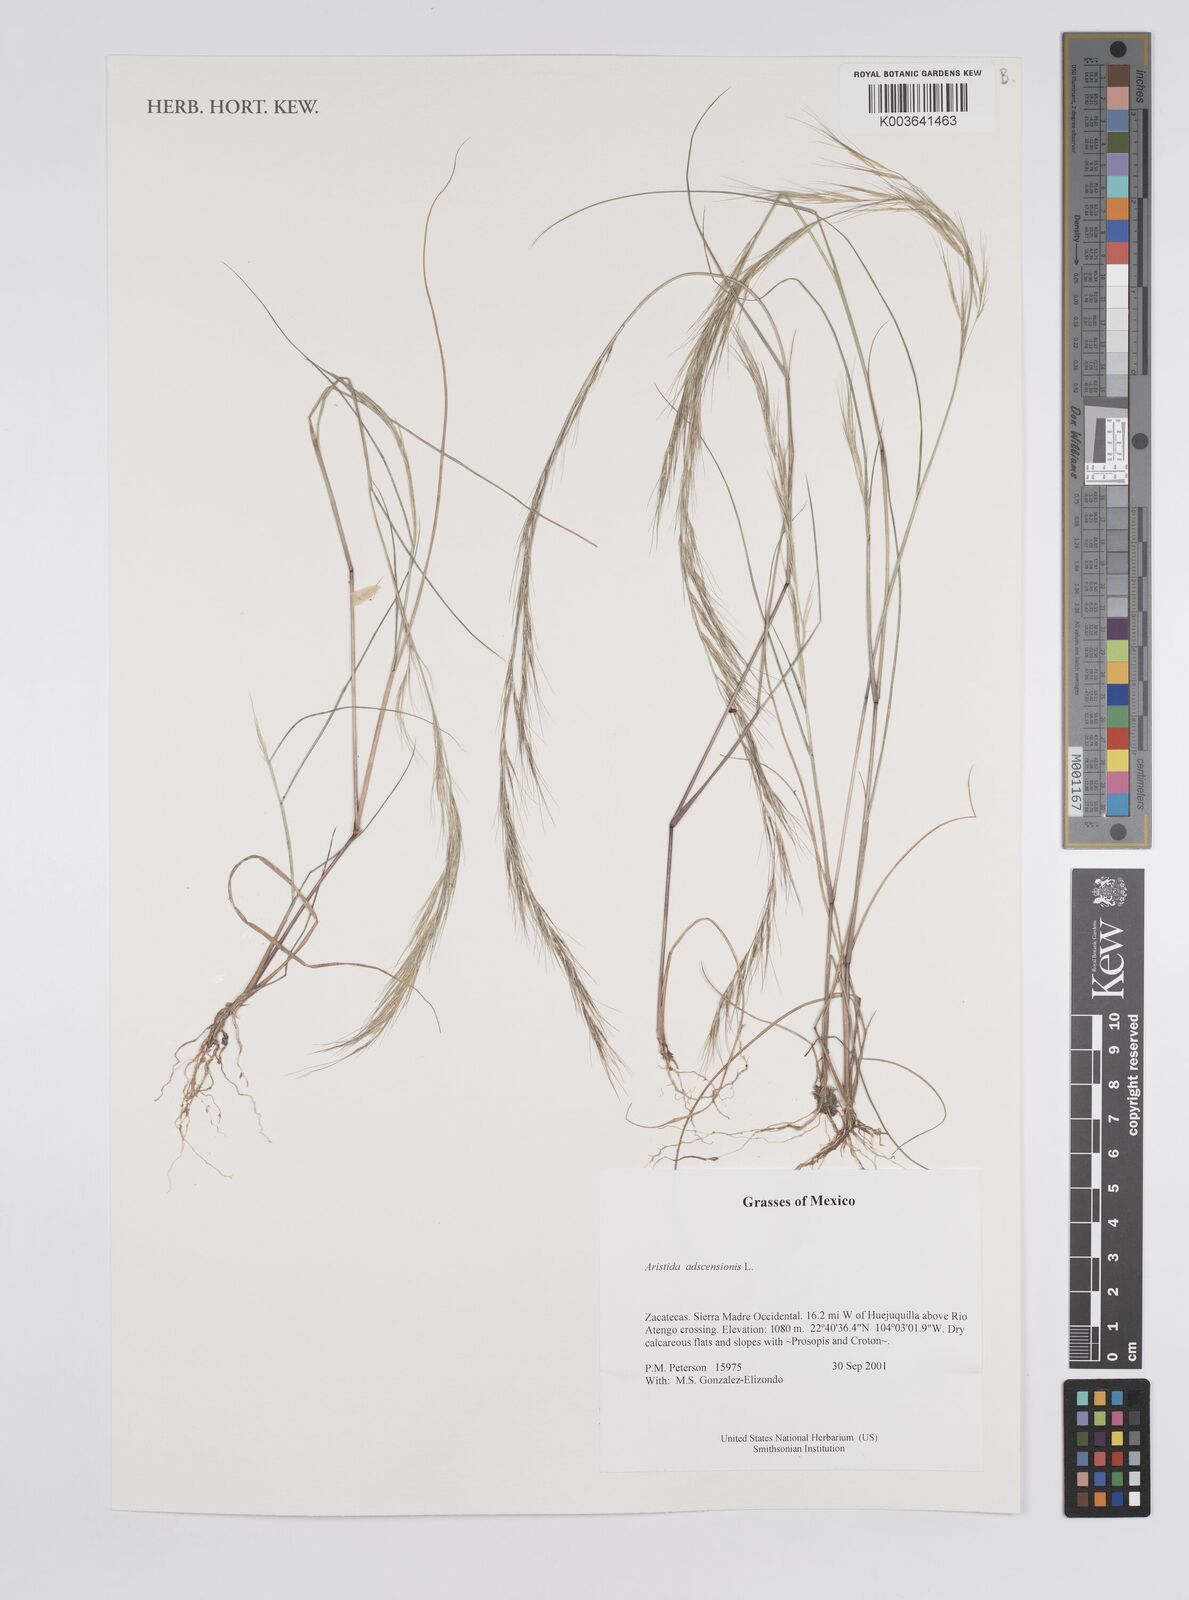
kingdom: Plantae
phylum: Tracheophyta
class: Liliopsida
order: Poales
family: Poaceae
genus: Aristida
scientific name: Aristida adscensionis
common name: Sixweeks threeawn
